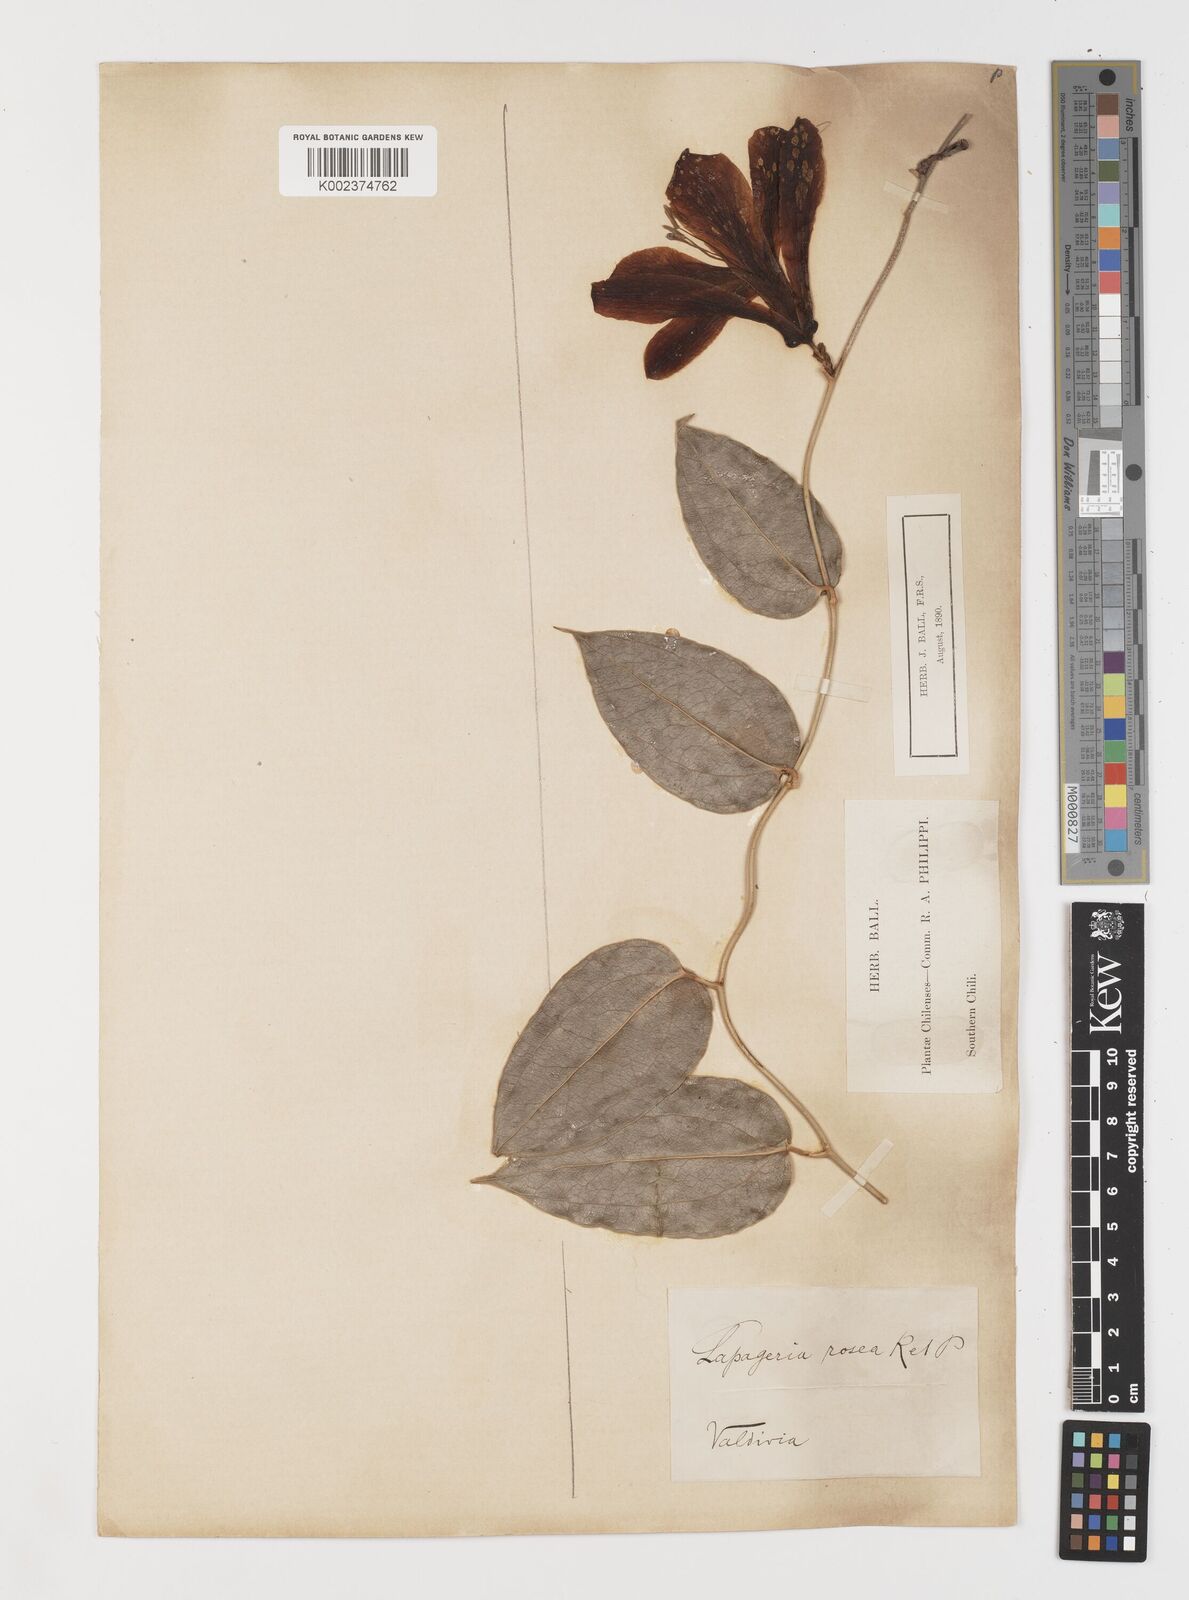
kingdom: Plantae
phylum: Tracheophyta
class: Liliopsida
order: Liliales
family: Philesiaceae
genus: Lapageria
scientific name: Lapageria rosea
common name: Chilean-bellflower
